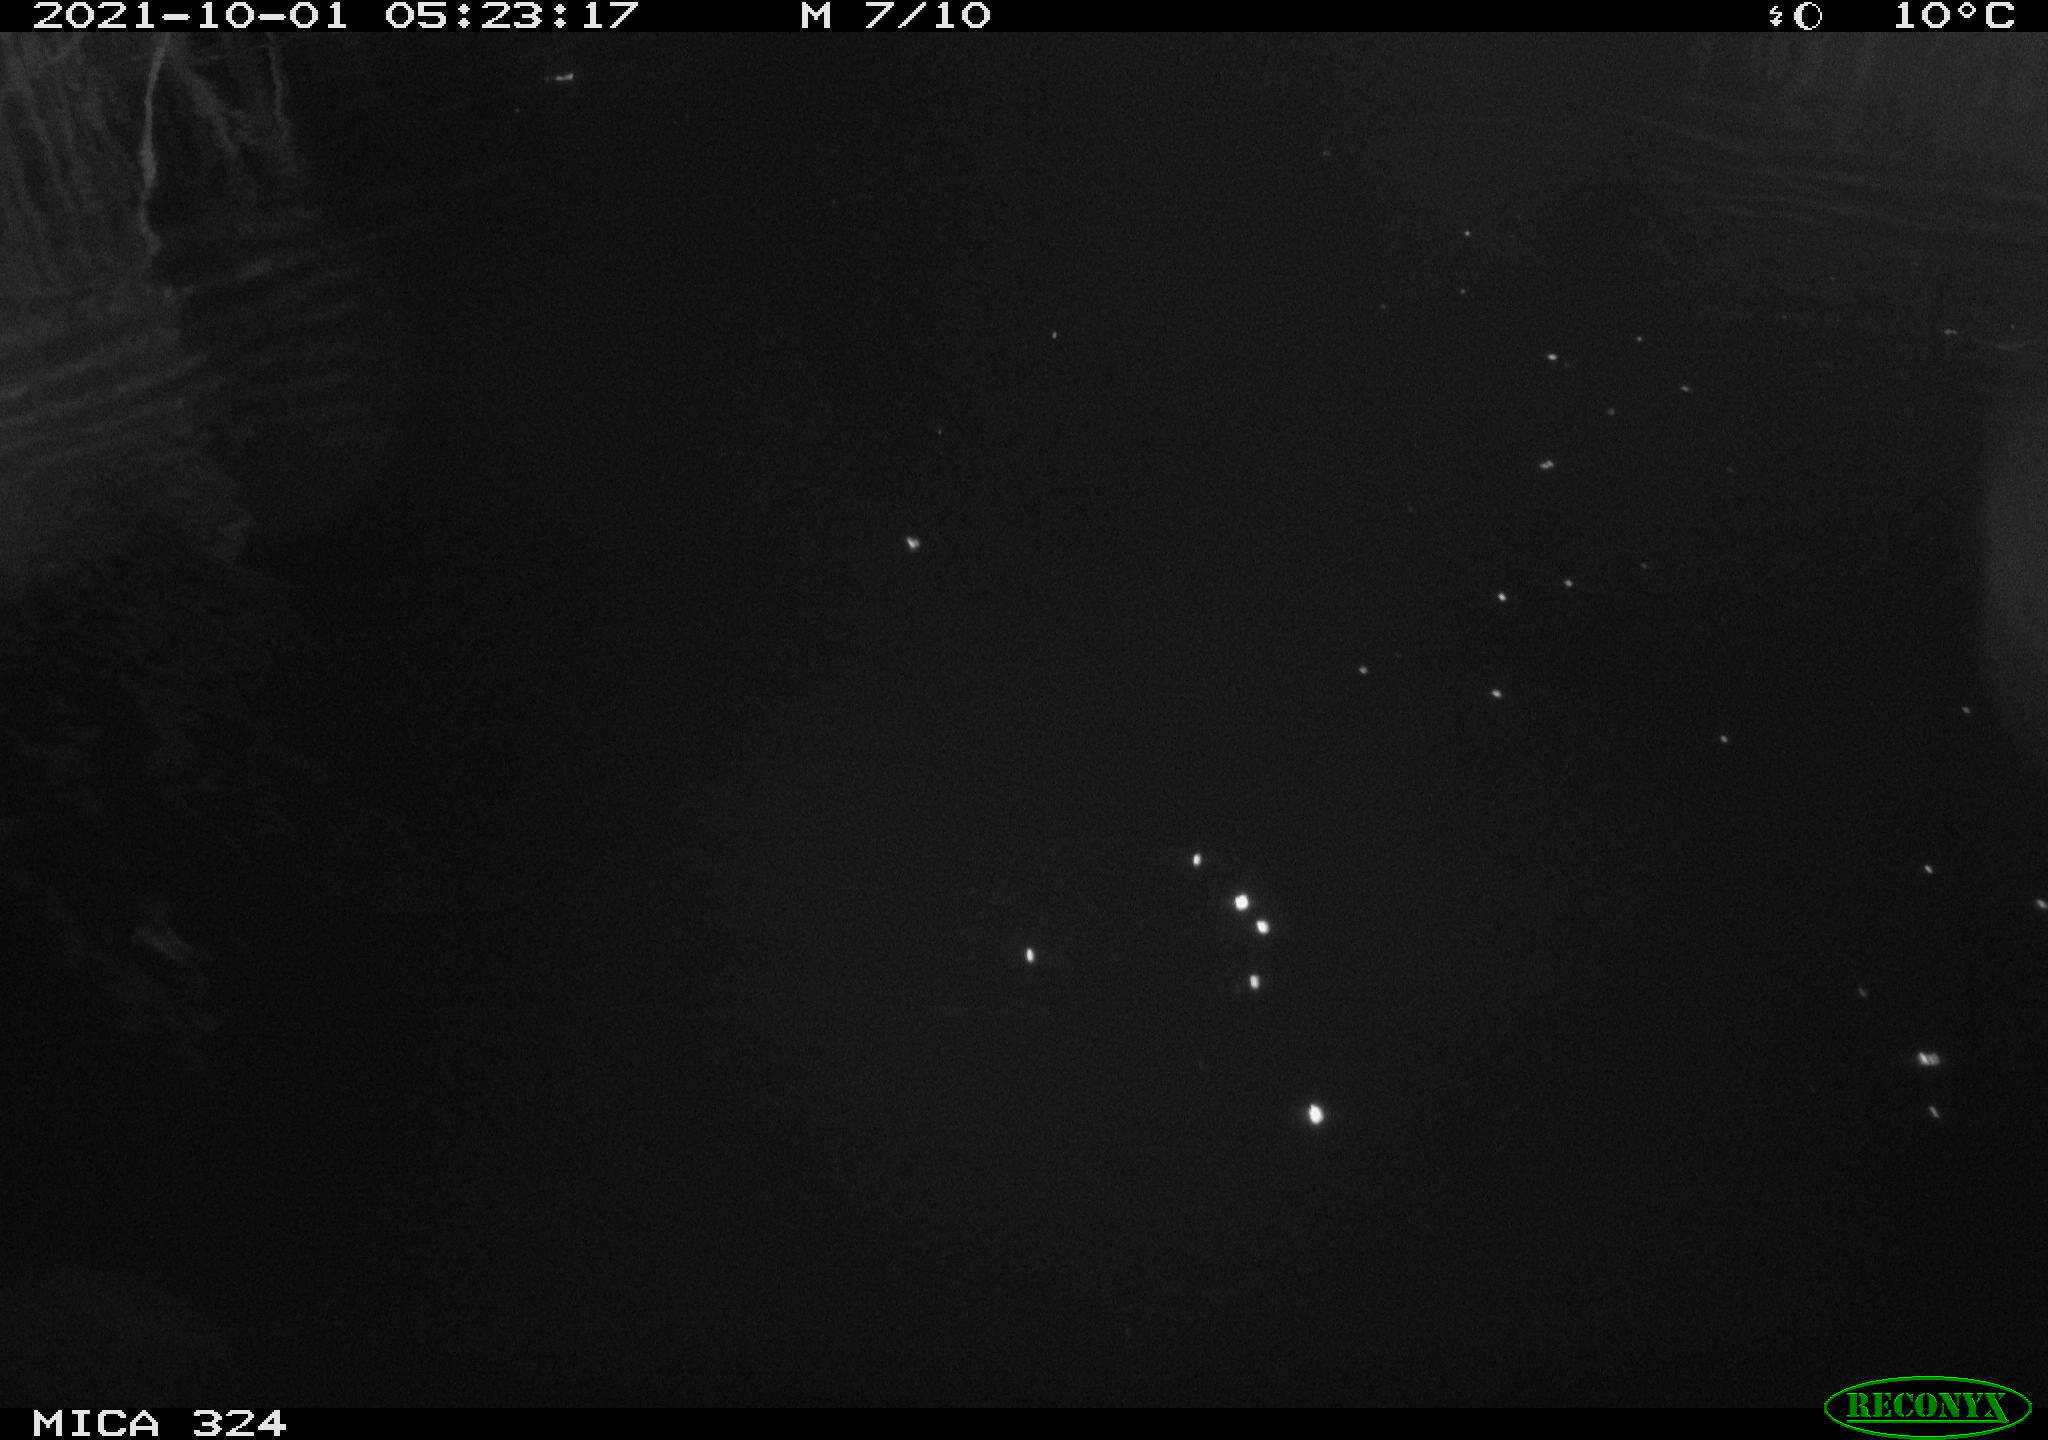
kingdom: Animalia
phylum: Chordata
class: Mammalia
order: Rodentia
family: Cricetidae
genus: Ondatra
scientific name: Ondatra zibethicus
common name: Muskrat
